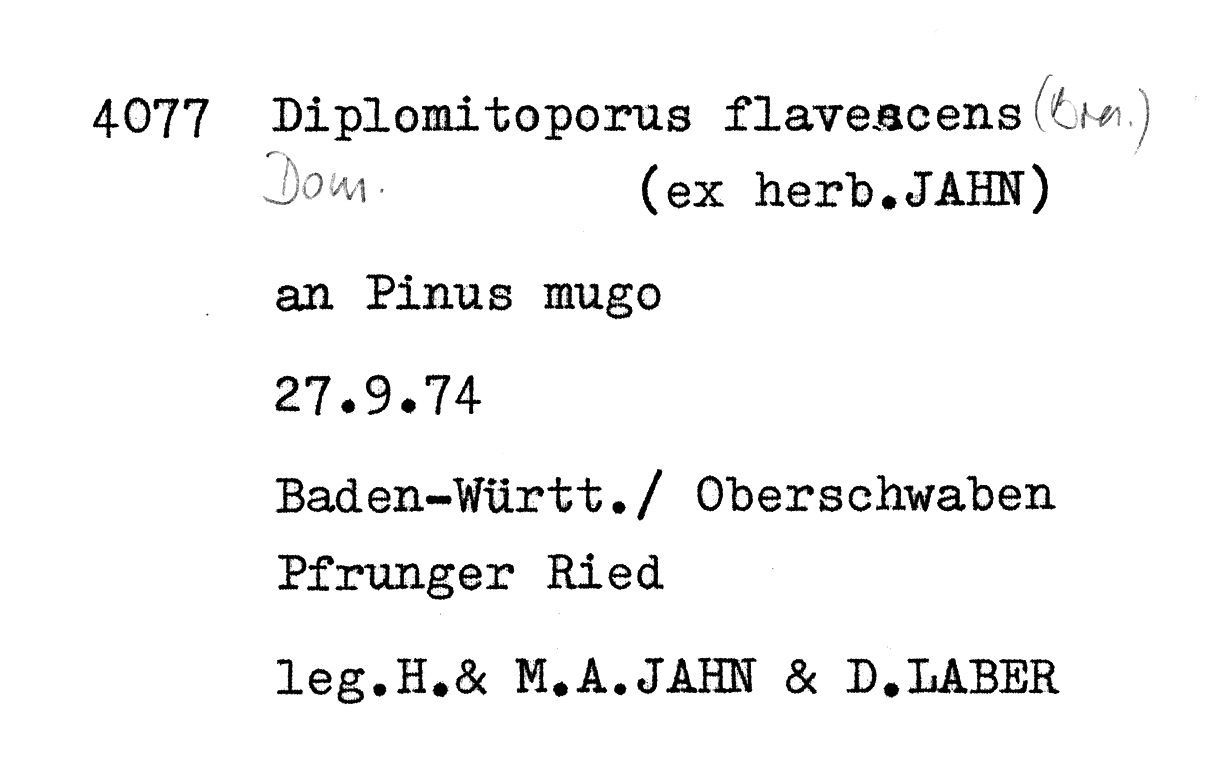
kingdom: Plantae
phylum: Tracheophyta
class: Pinopsida
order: Pinales
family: Pinaceae
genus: Pinus
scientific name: Pinus mugo
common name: Mugo pine
